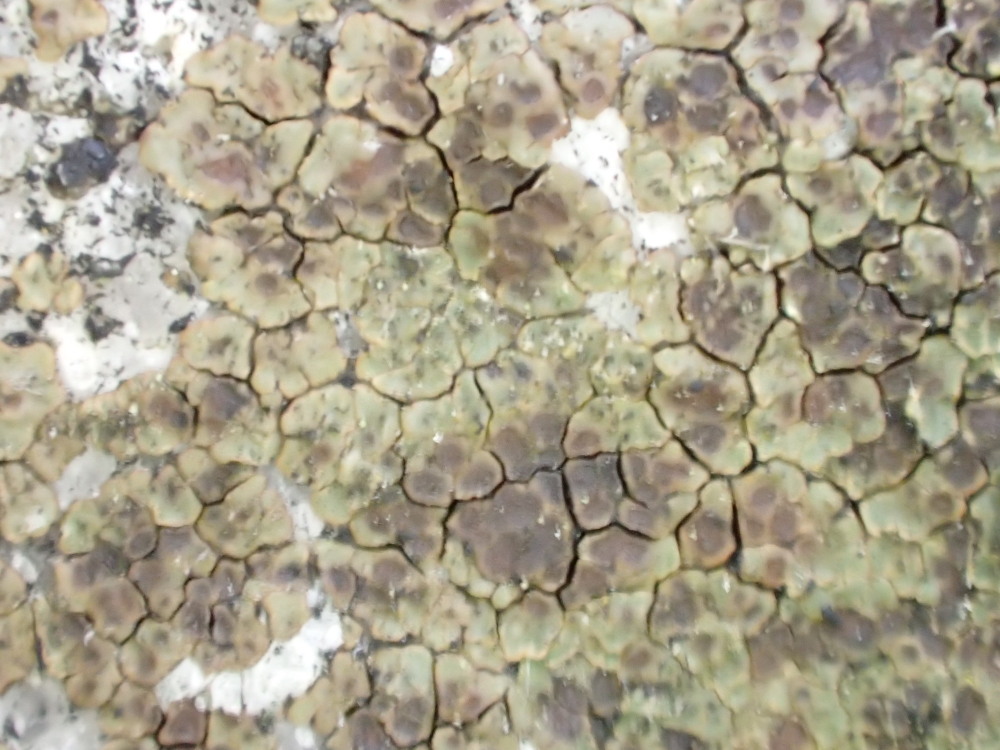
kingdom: Fungi
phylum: Ascomycota
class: Lecanoromycetes
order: Acarosporales
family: Acarosporaceae
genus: Acarospora
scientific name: Acarospora fuscata
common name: brun småsporelav
